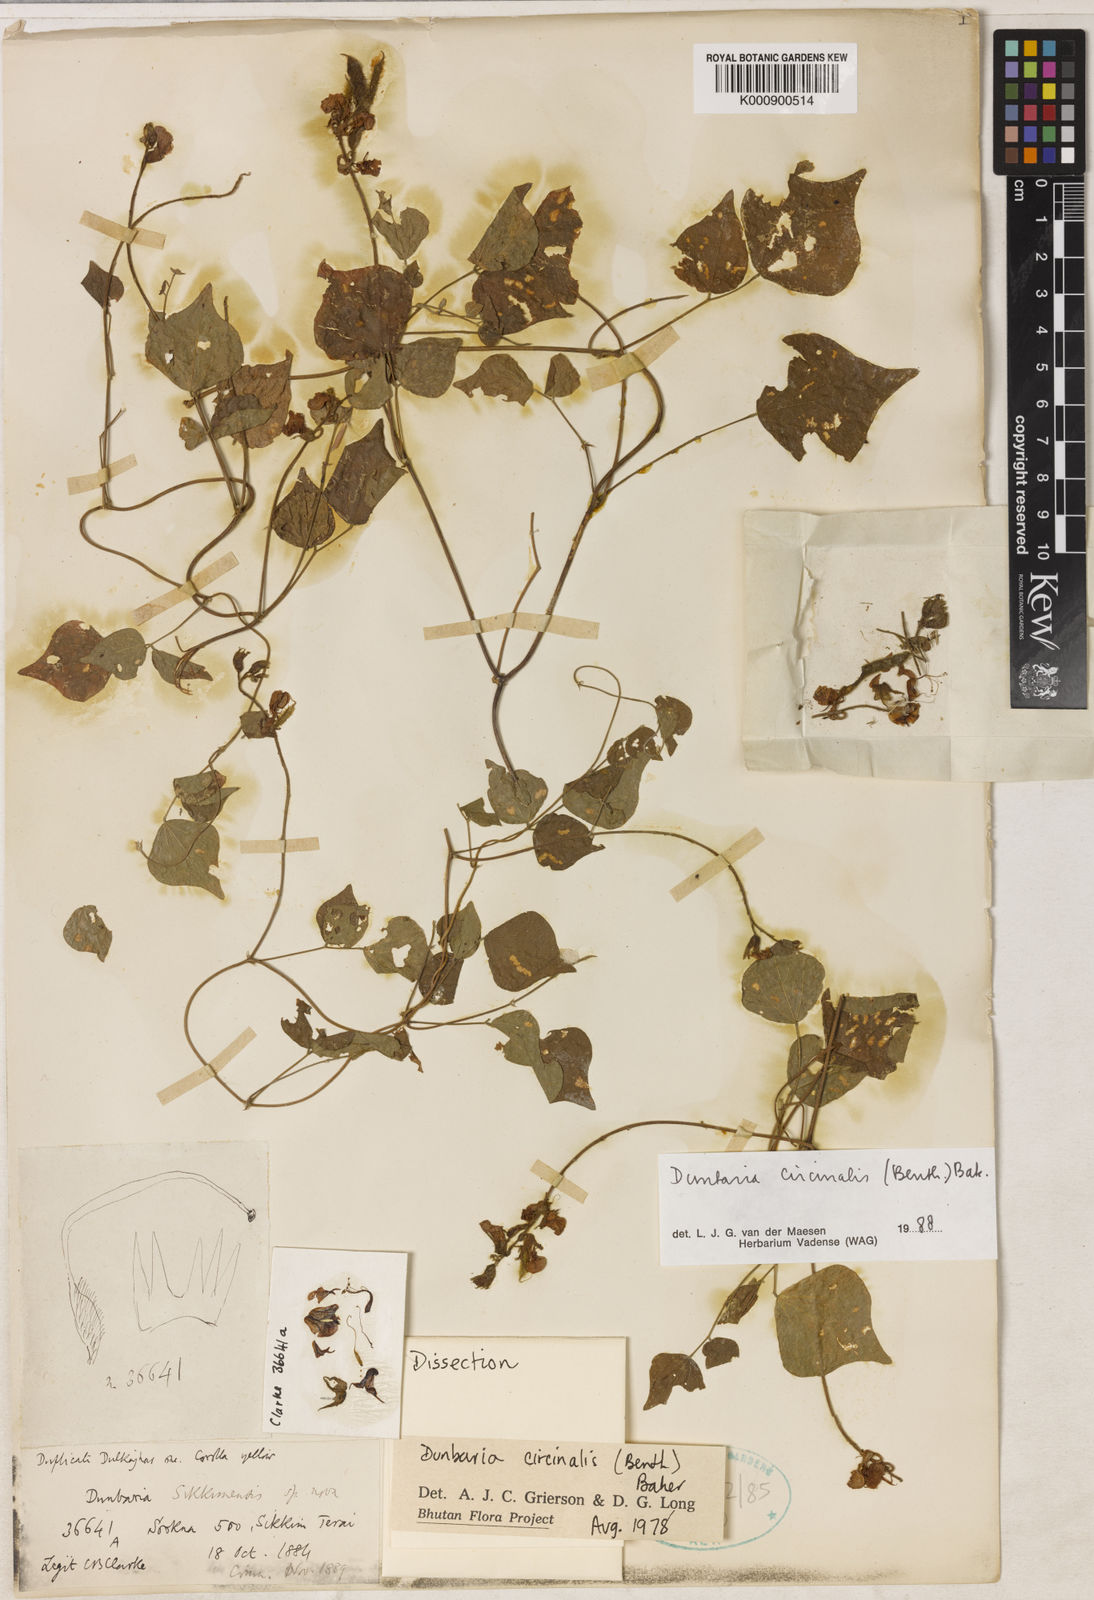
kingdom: Plantae
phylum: Tracheophyta
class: Magnoliopsida
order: Fabales
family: Fabaceae
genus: Dunbaria
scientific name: Dunbaria circinalis
